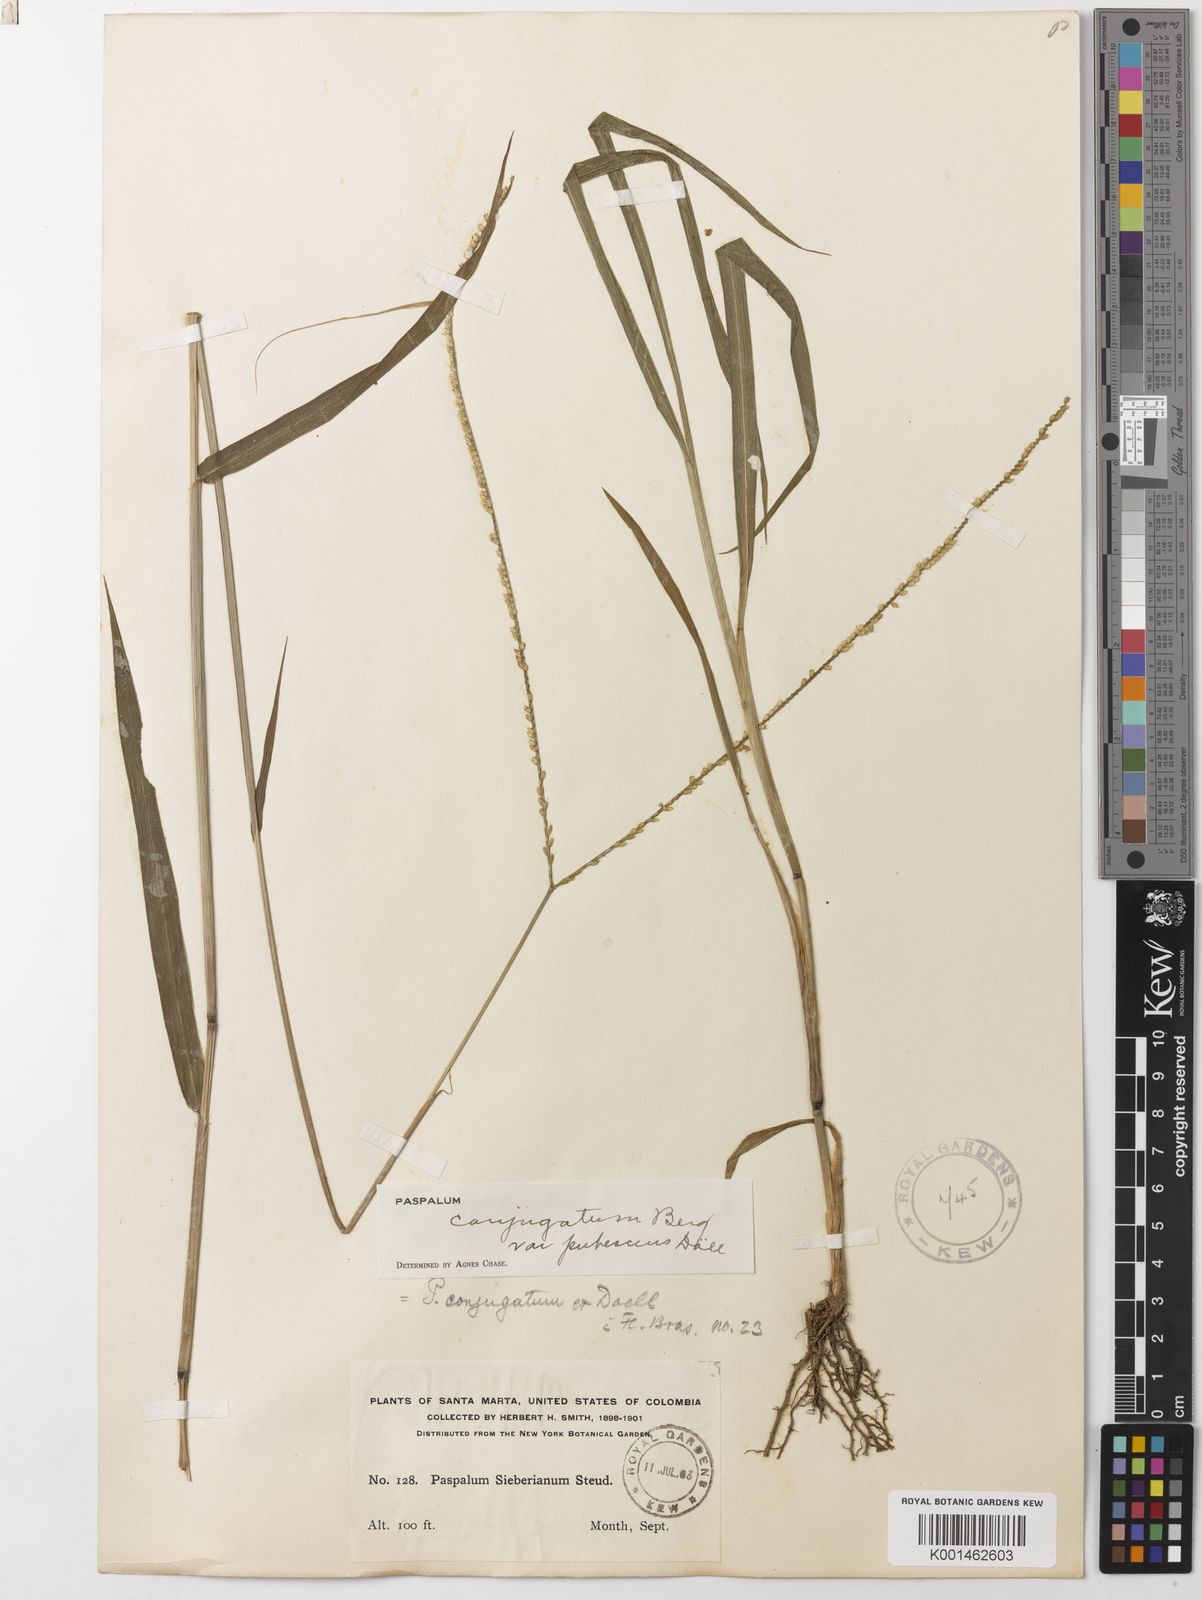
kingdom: Plantae
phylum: Tracheophyta
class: Liliopsida
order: Poales
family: Poaceae
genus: Paspalum
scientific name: Paspalum conjugatum
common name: Hilograss
